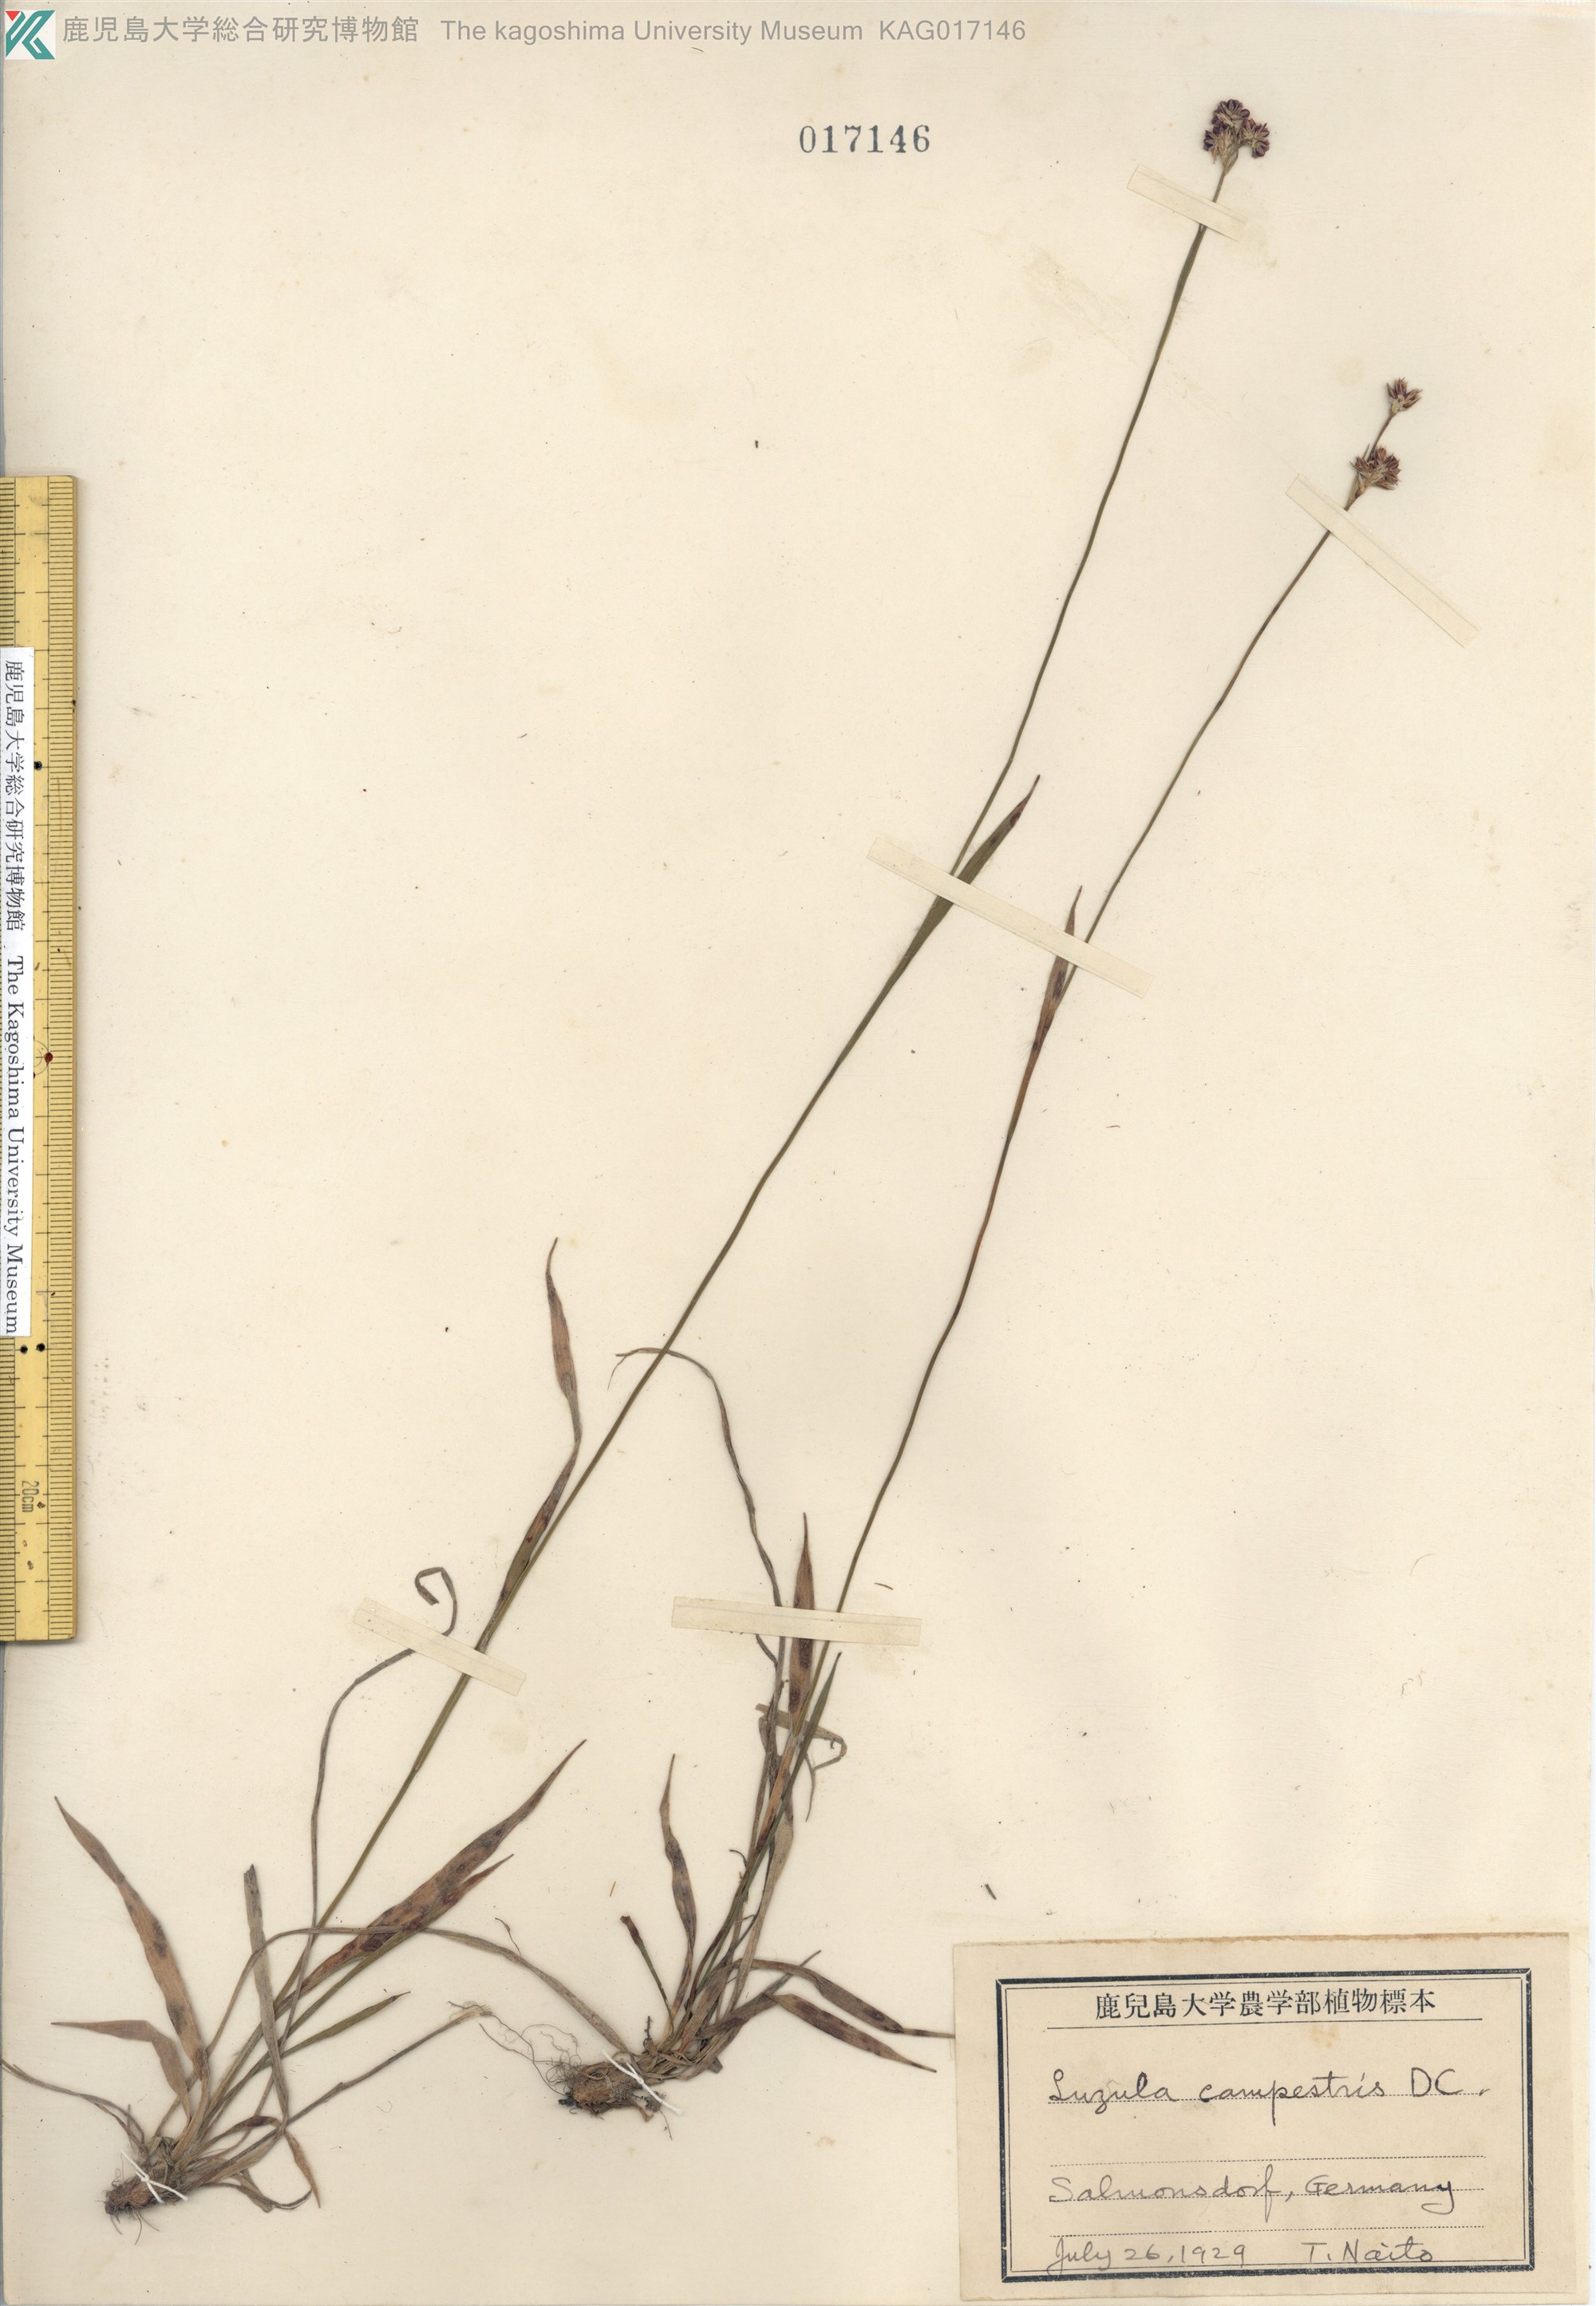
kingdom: Plantae
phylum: Tracheophyta
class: Liliopsida
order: Poales
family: Juncaceae
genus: Luzula
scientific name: Luzula campestris
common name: Field wood-rush
